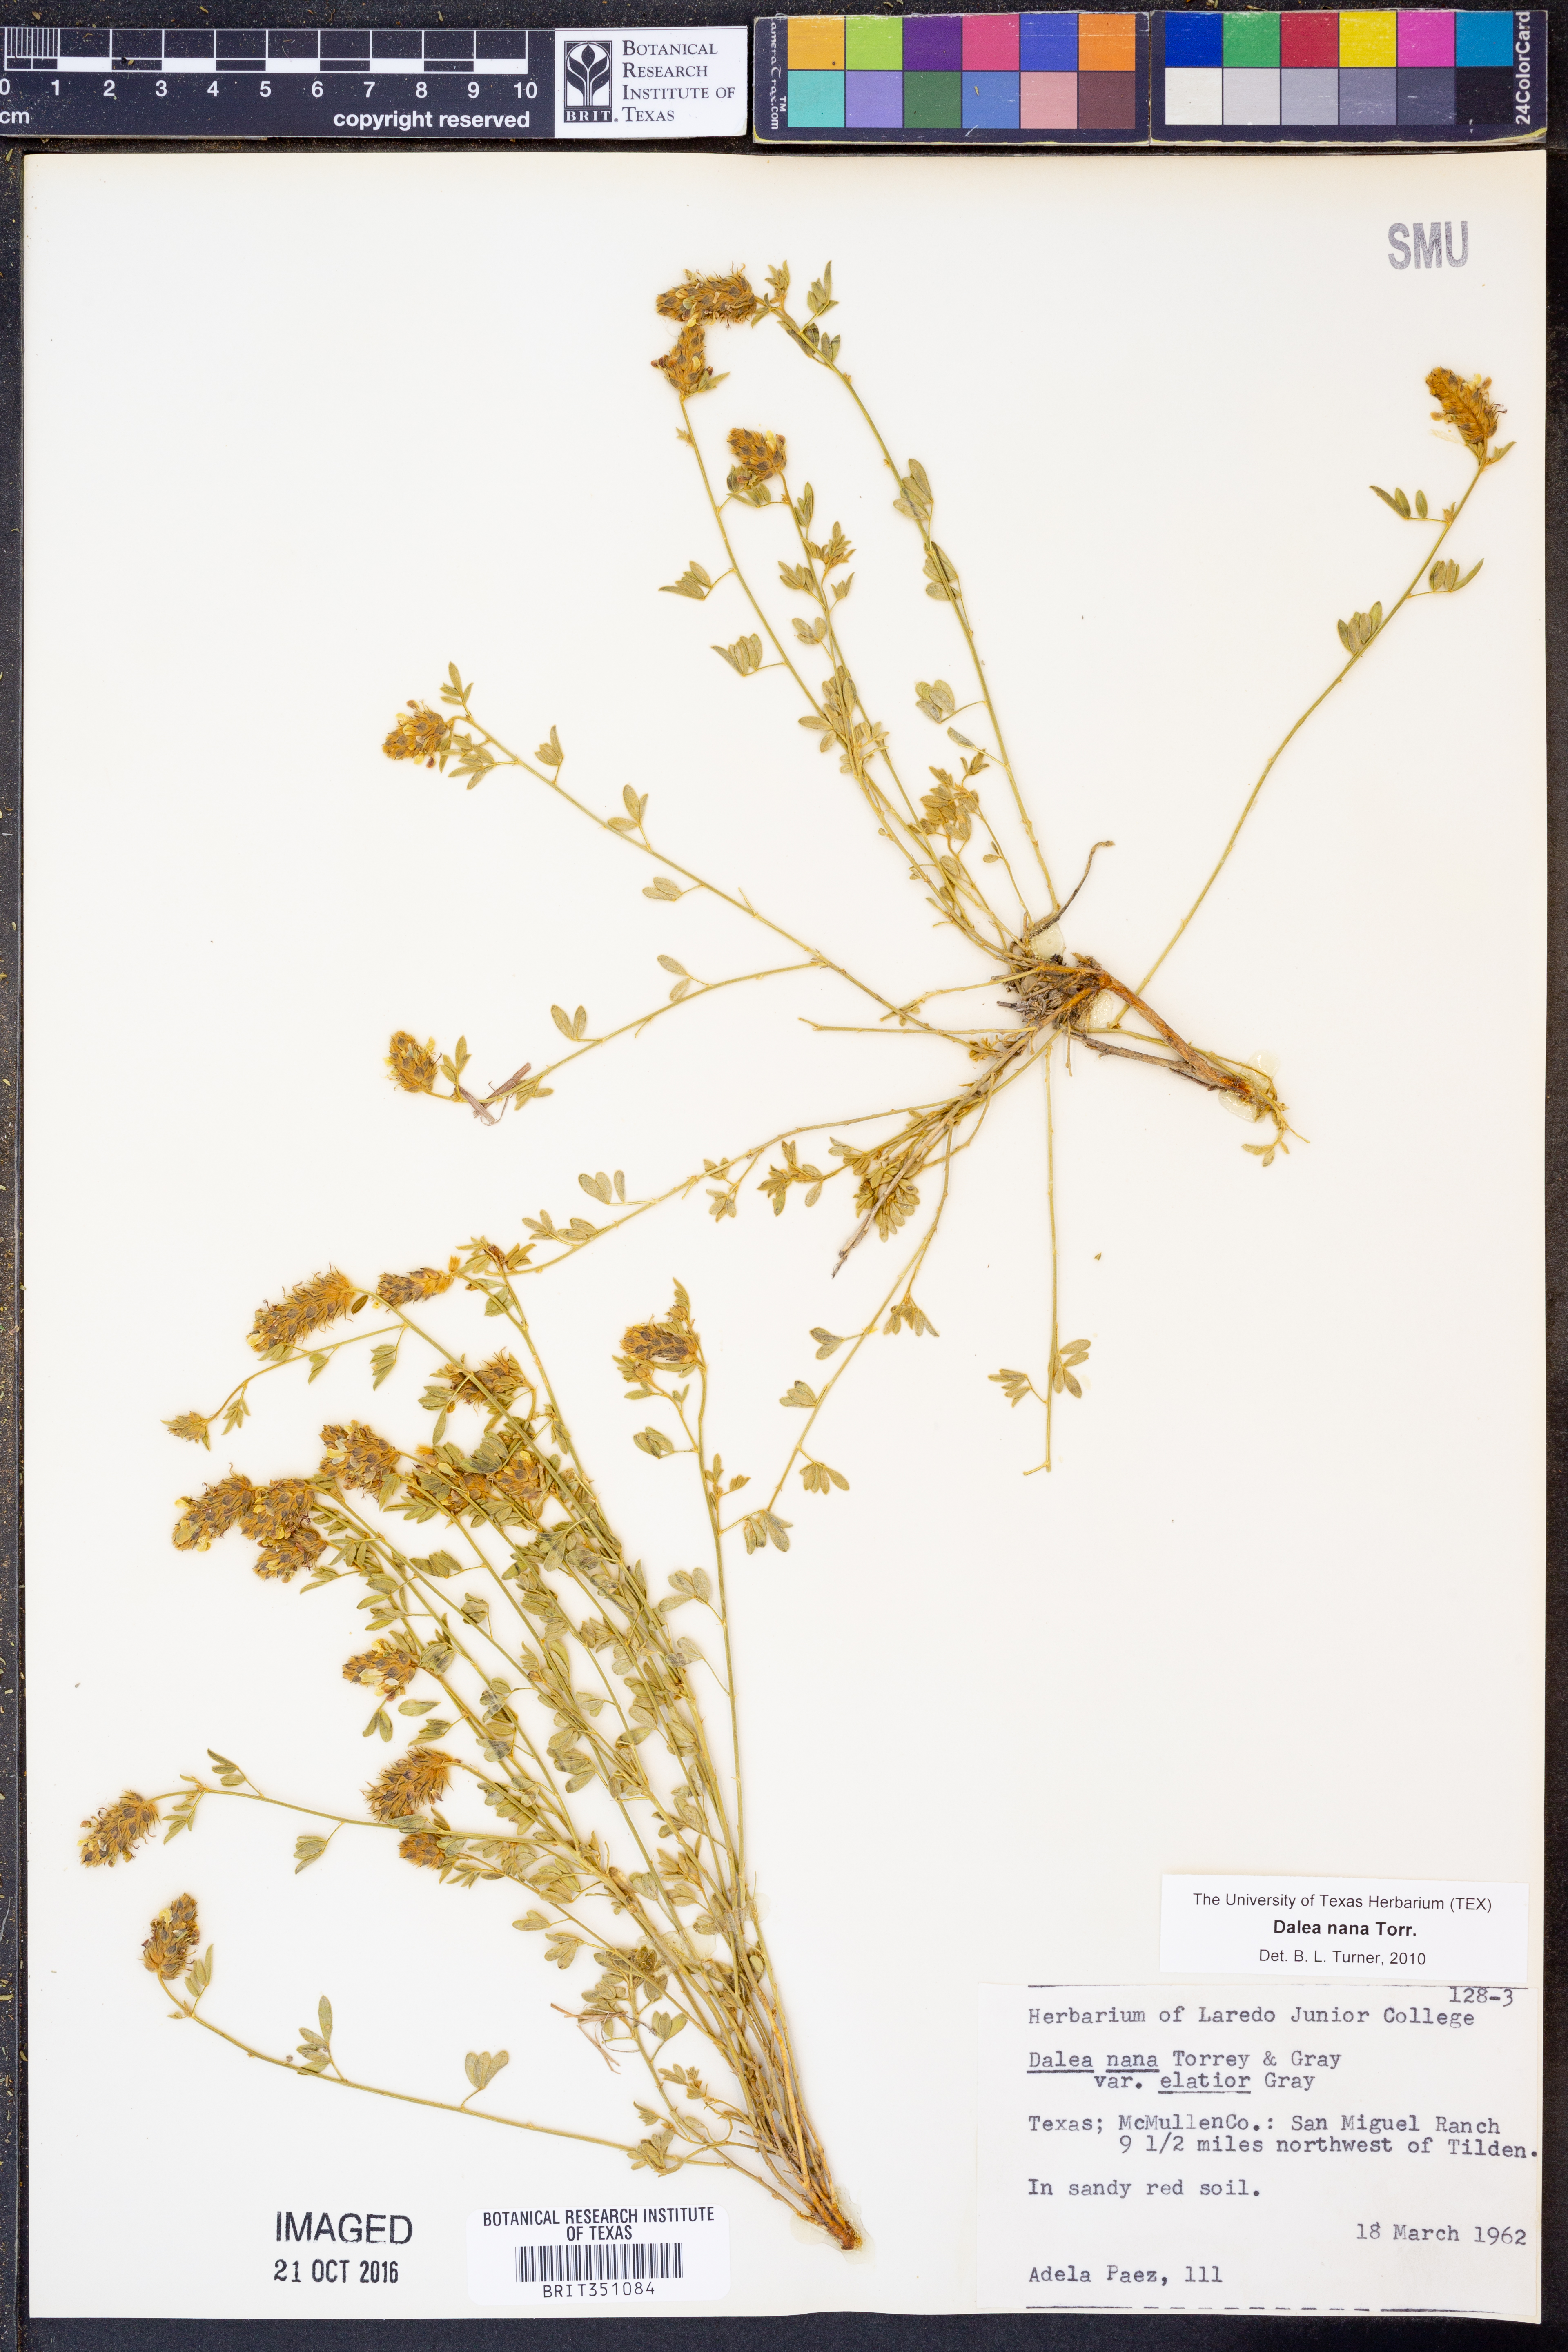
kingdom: Plantae
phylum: Tracheophyta
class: Magnoliopsida
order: Fabales
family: Fabaceae
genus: Dalea
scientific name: Dalea nana
